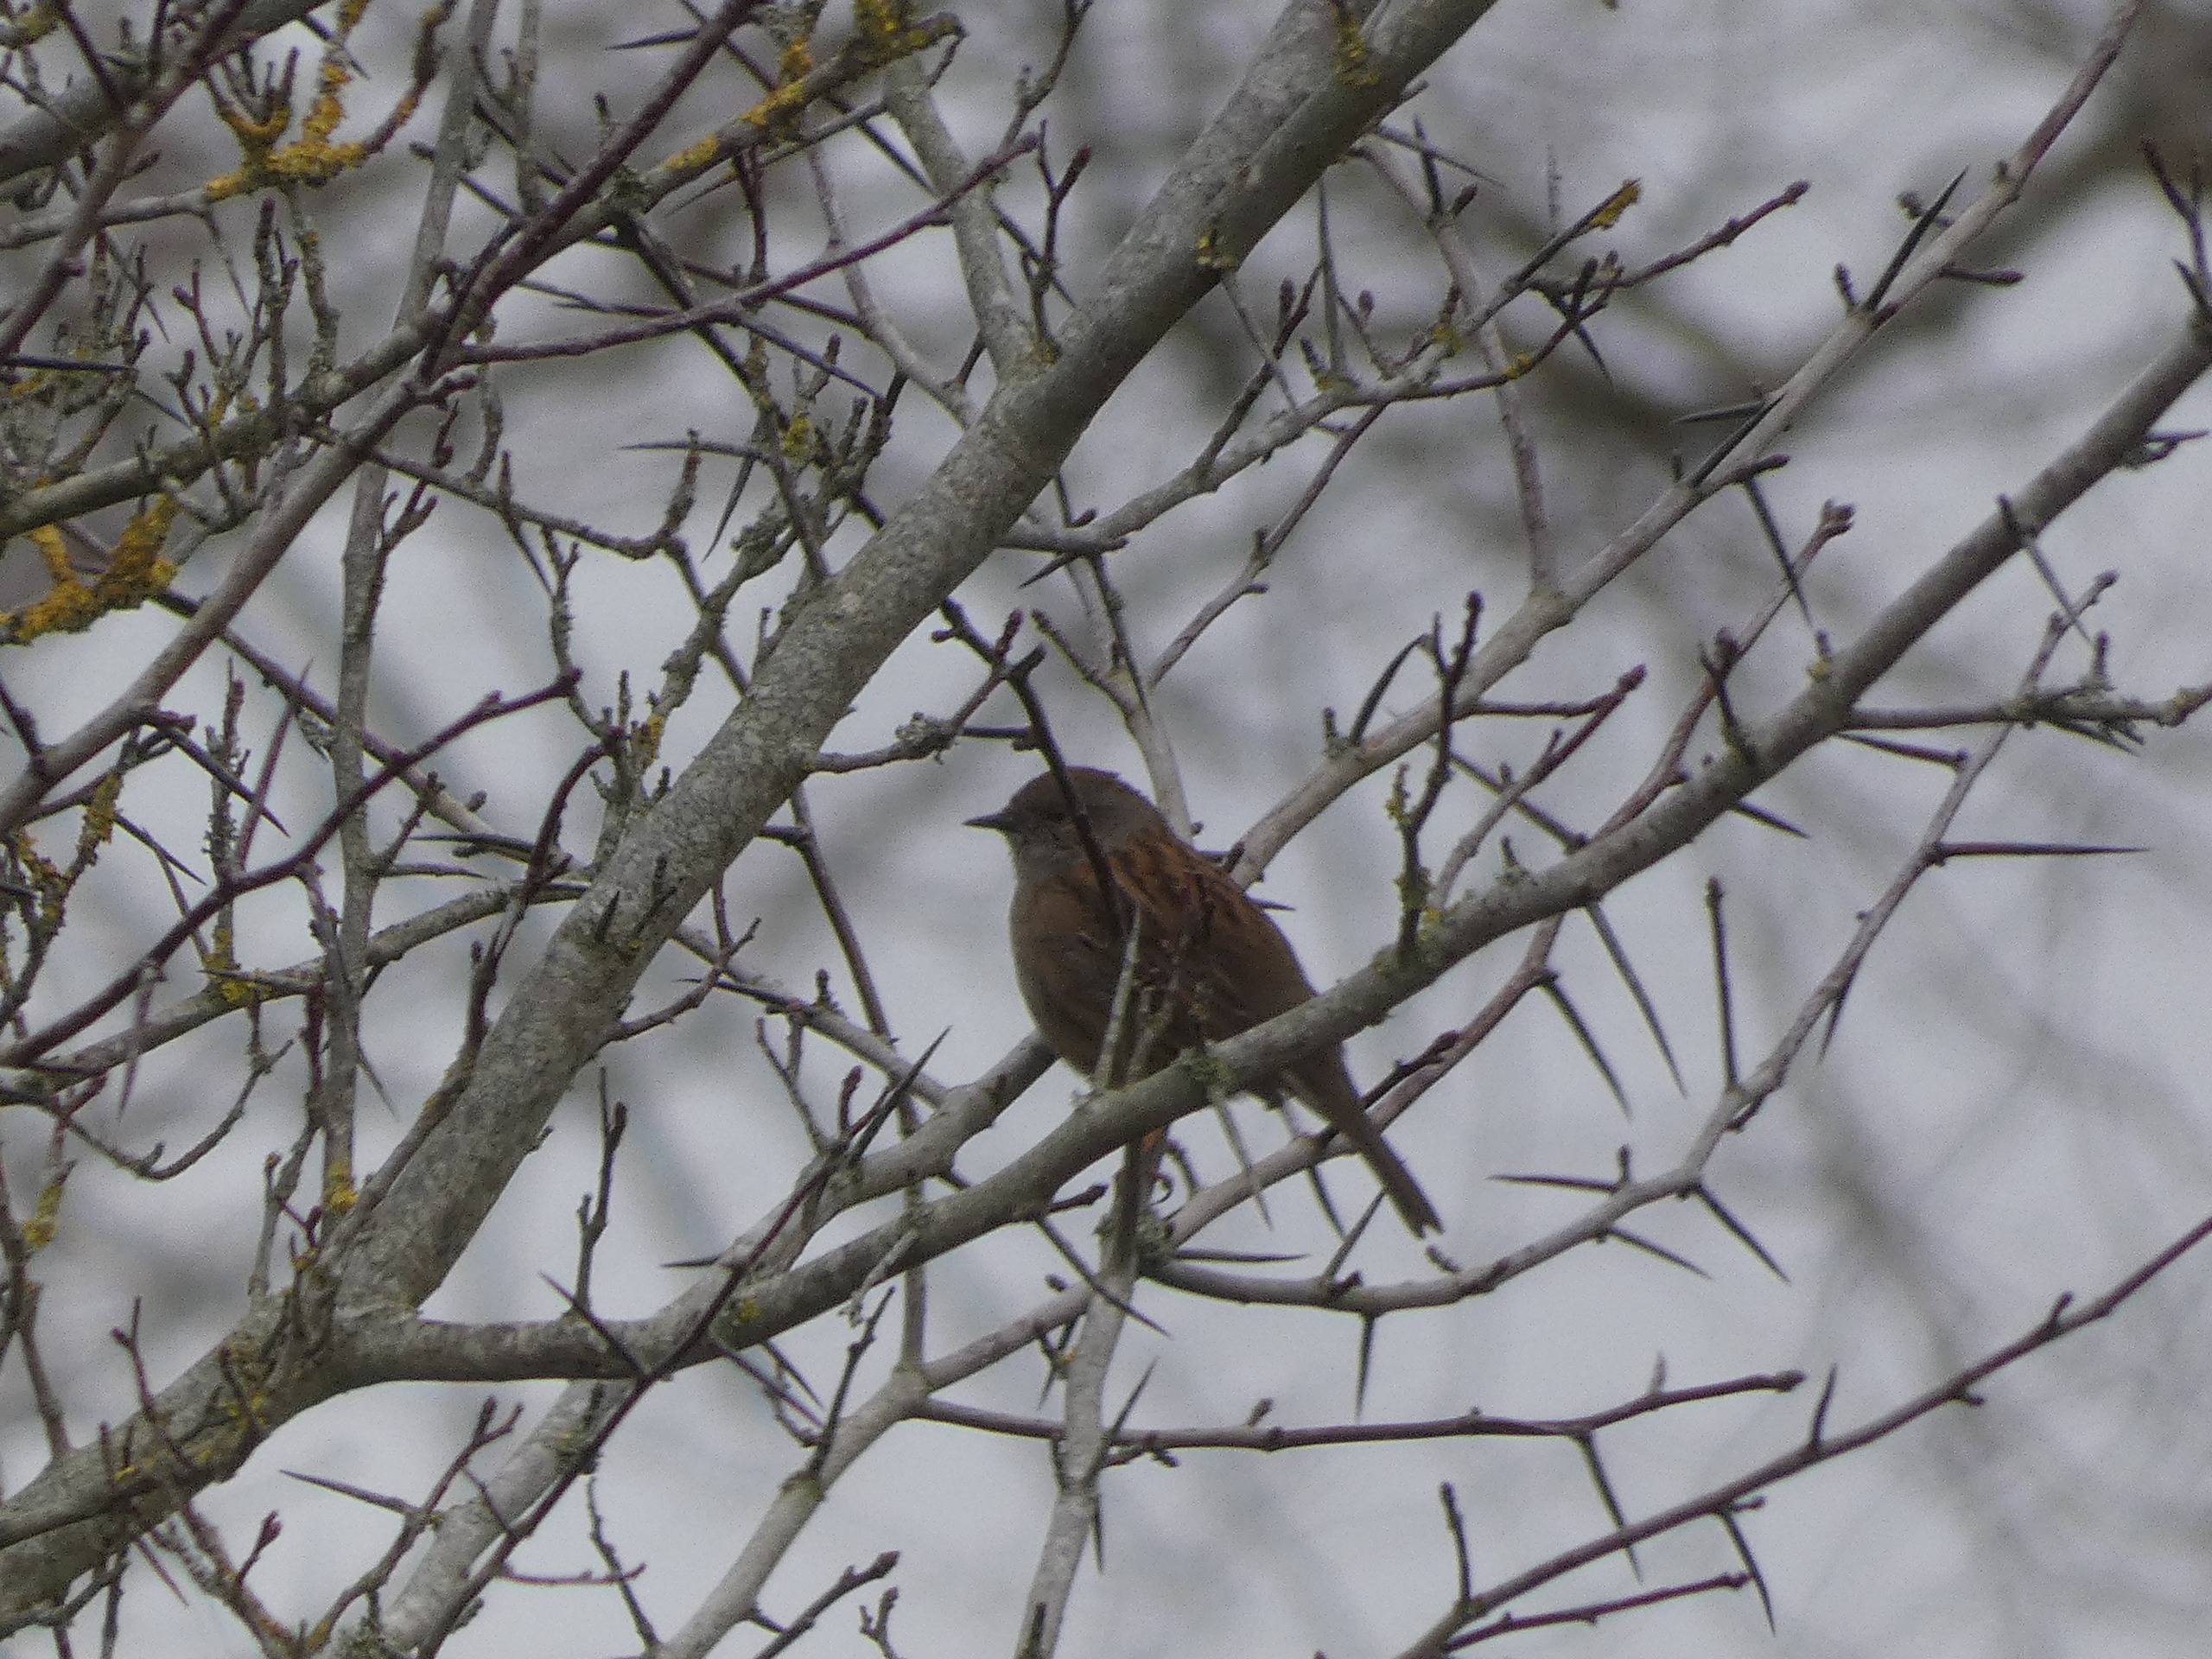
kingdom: Animalia
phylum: Chordata
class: Aves
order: Passeriformes
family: Prunellidae
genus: Prunella
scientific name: Prunella modularis
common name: Jernspurv
